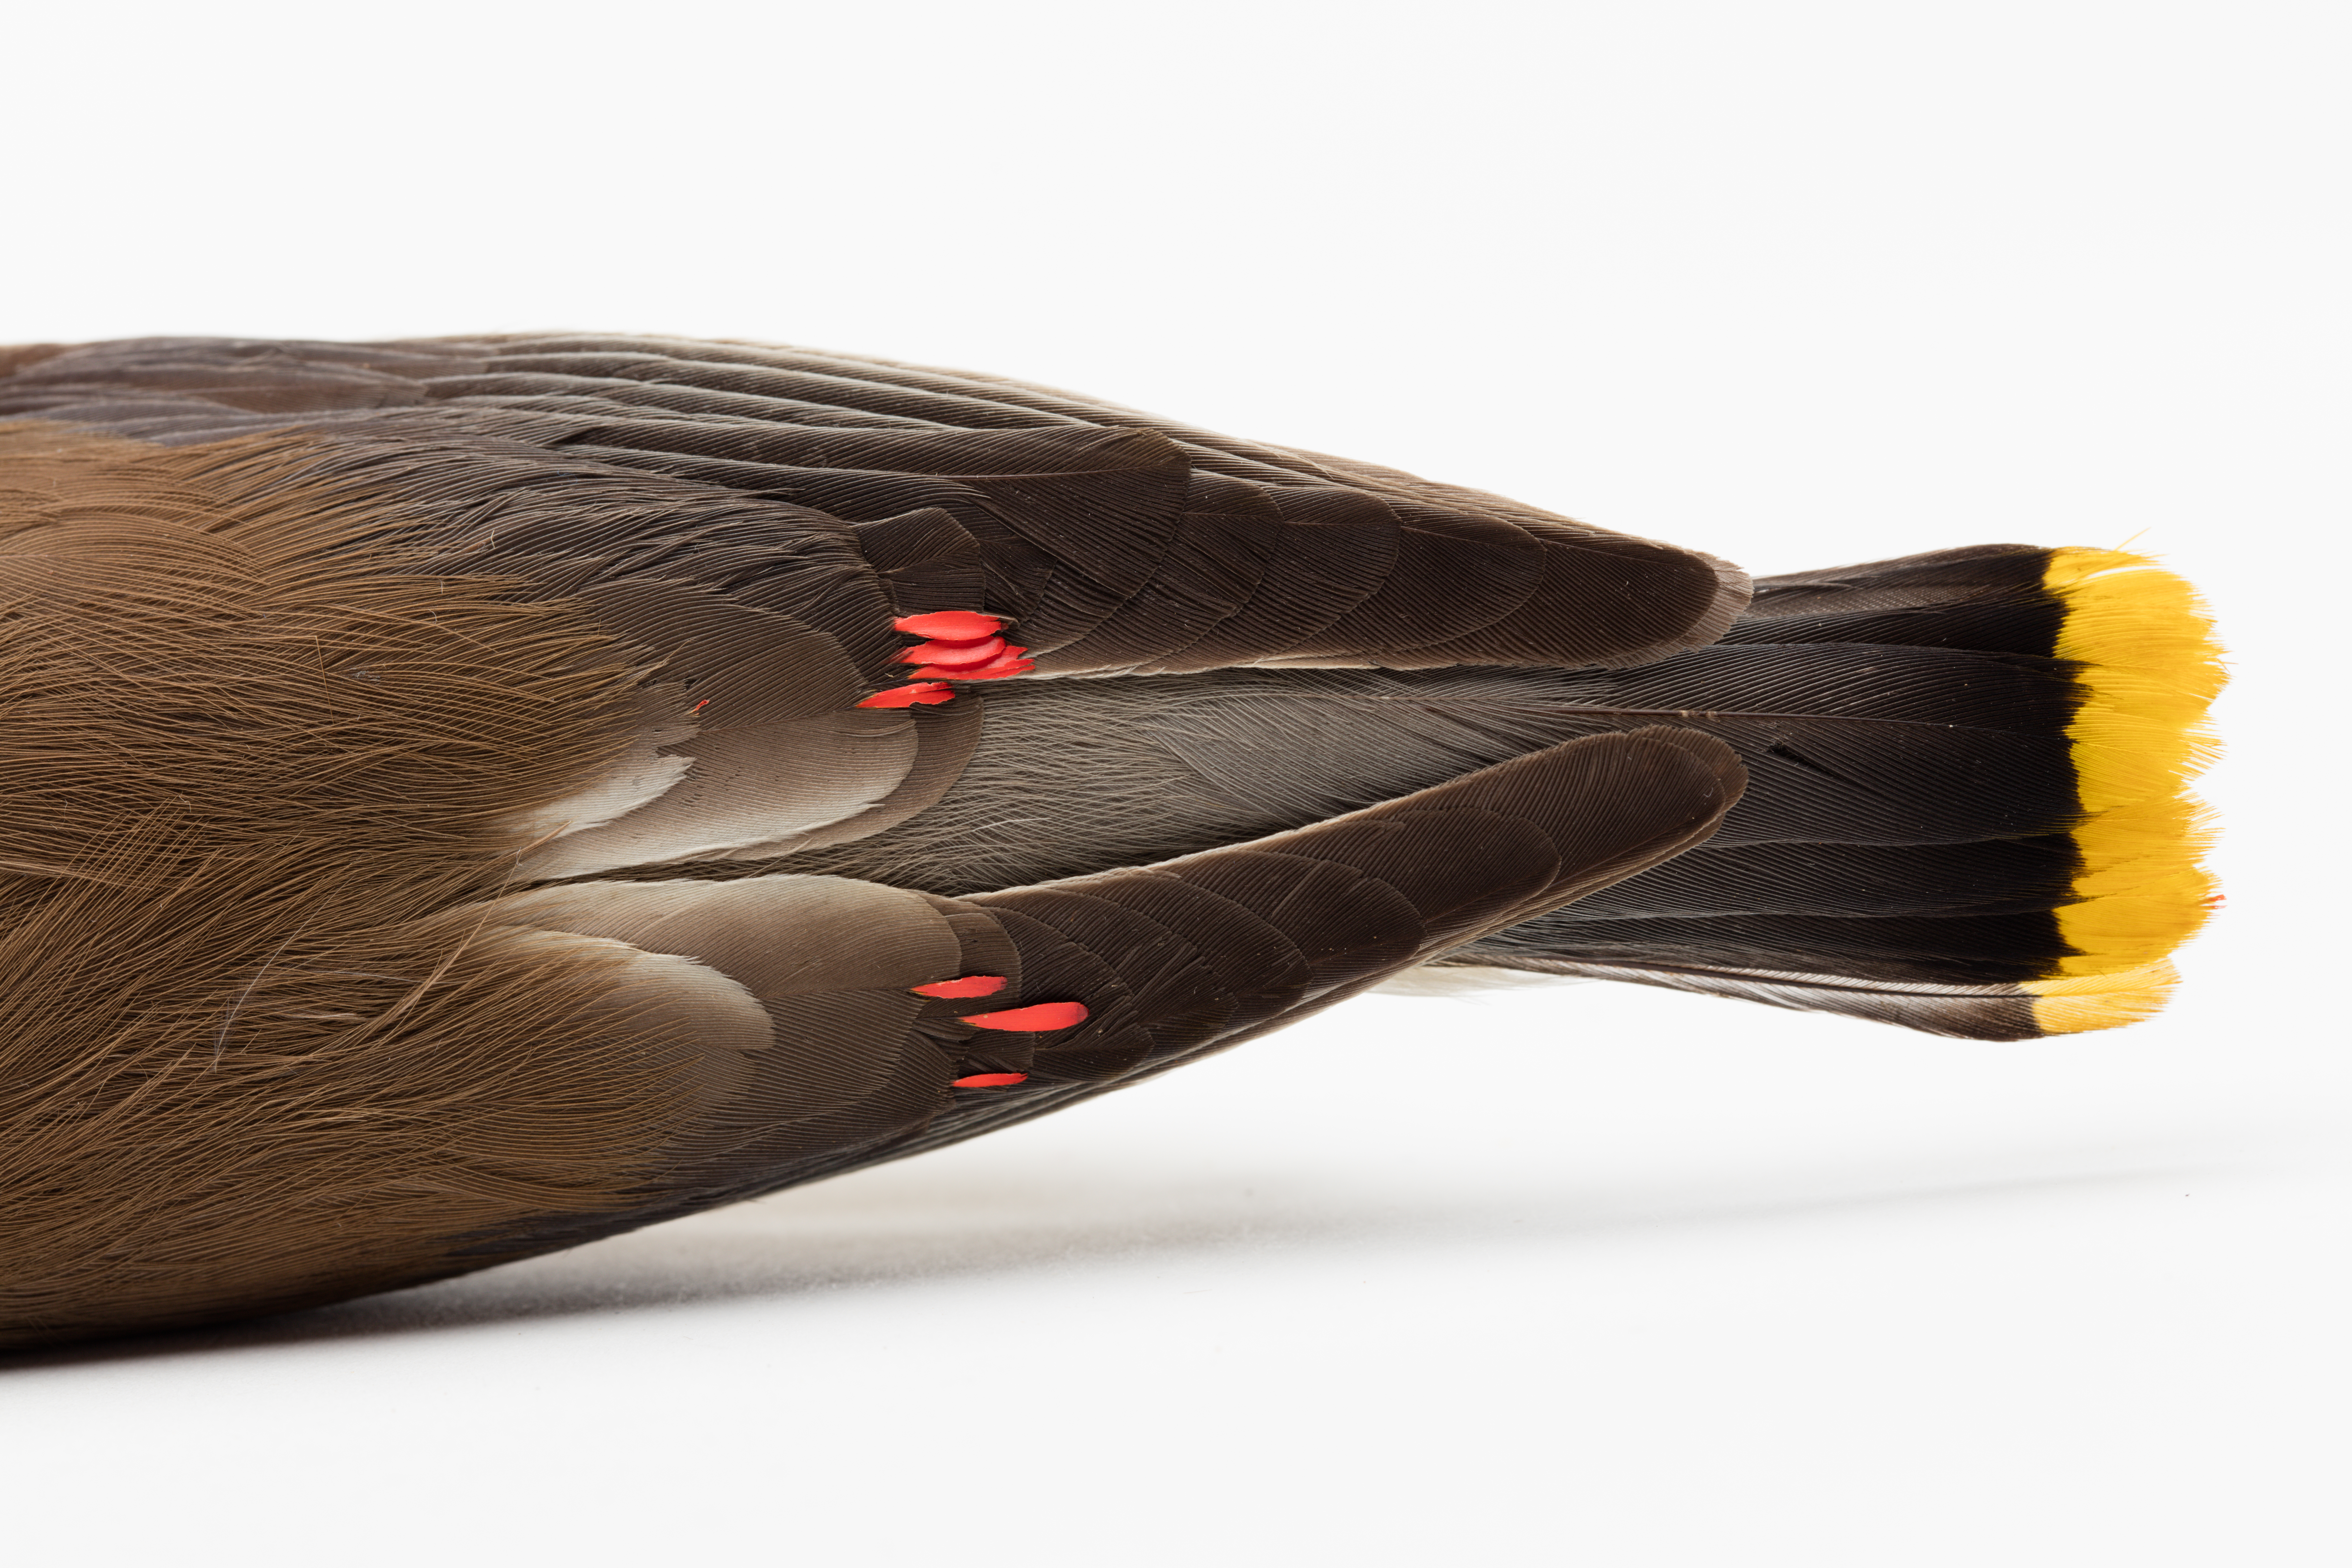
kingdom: Animalia
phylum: Chordata
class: Aves
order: Passeriformes
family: Bombycillidae
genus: Bombycilla
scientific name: Bombycilla cedrorum
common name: Cedar waxwing
